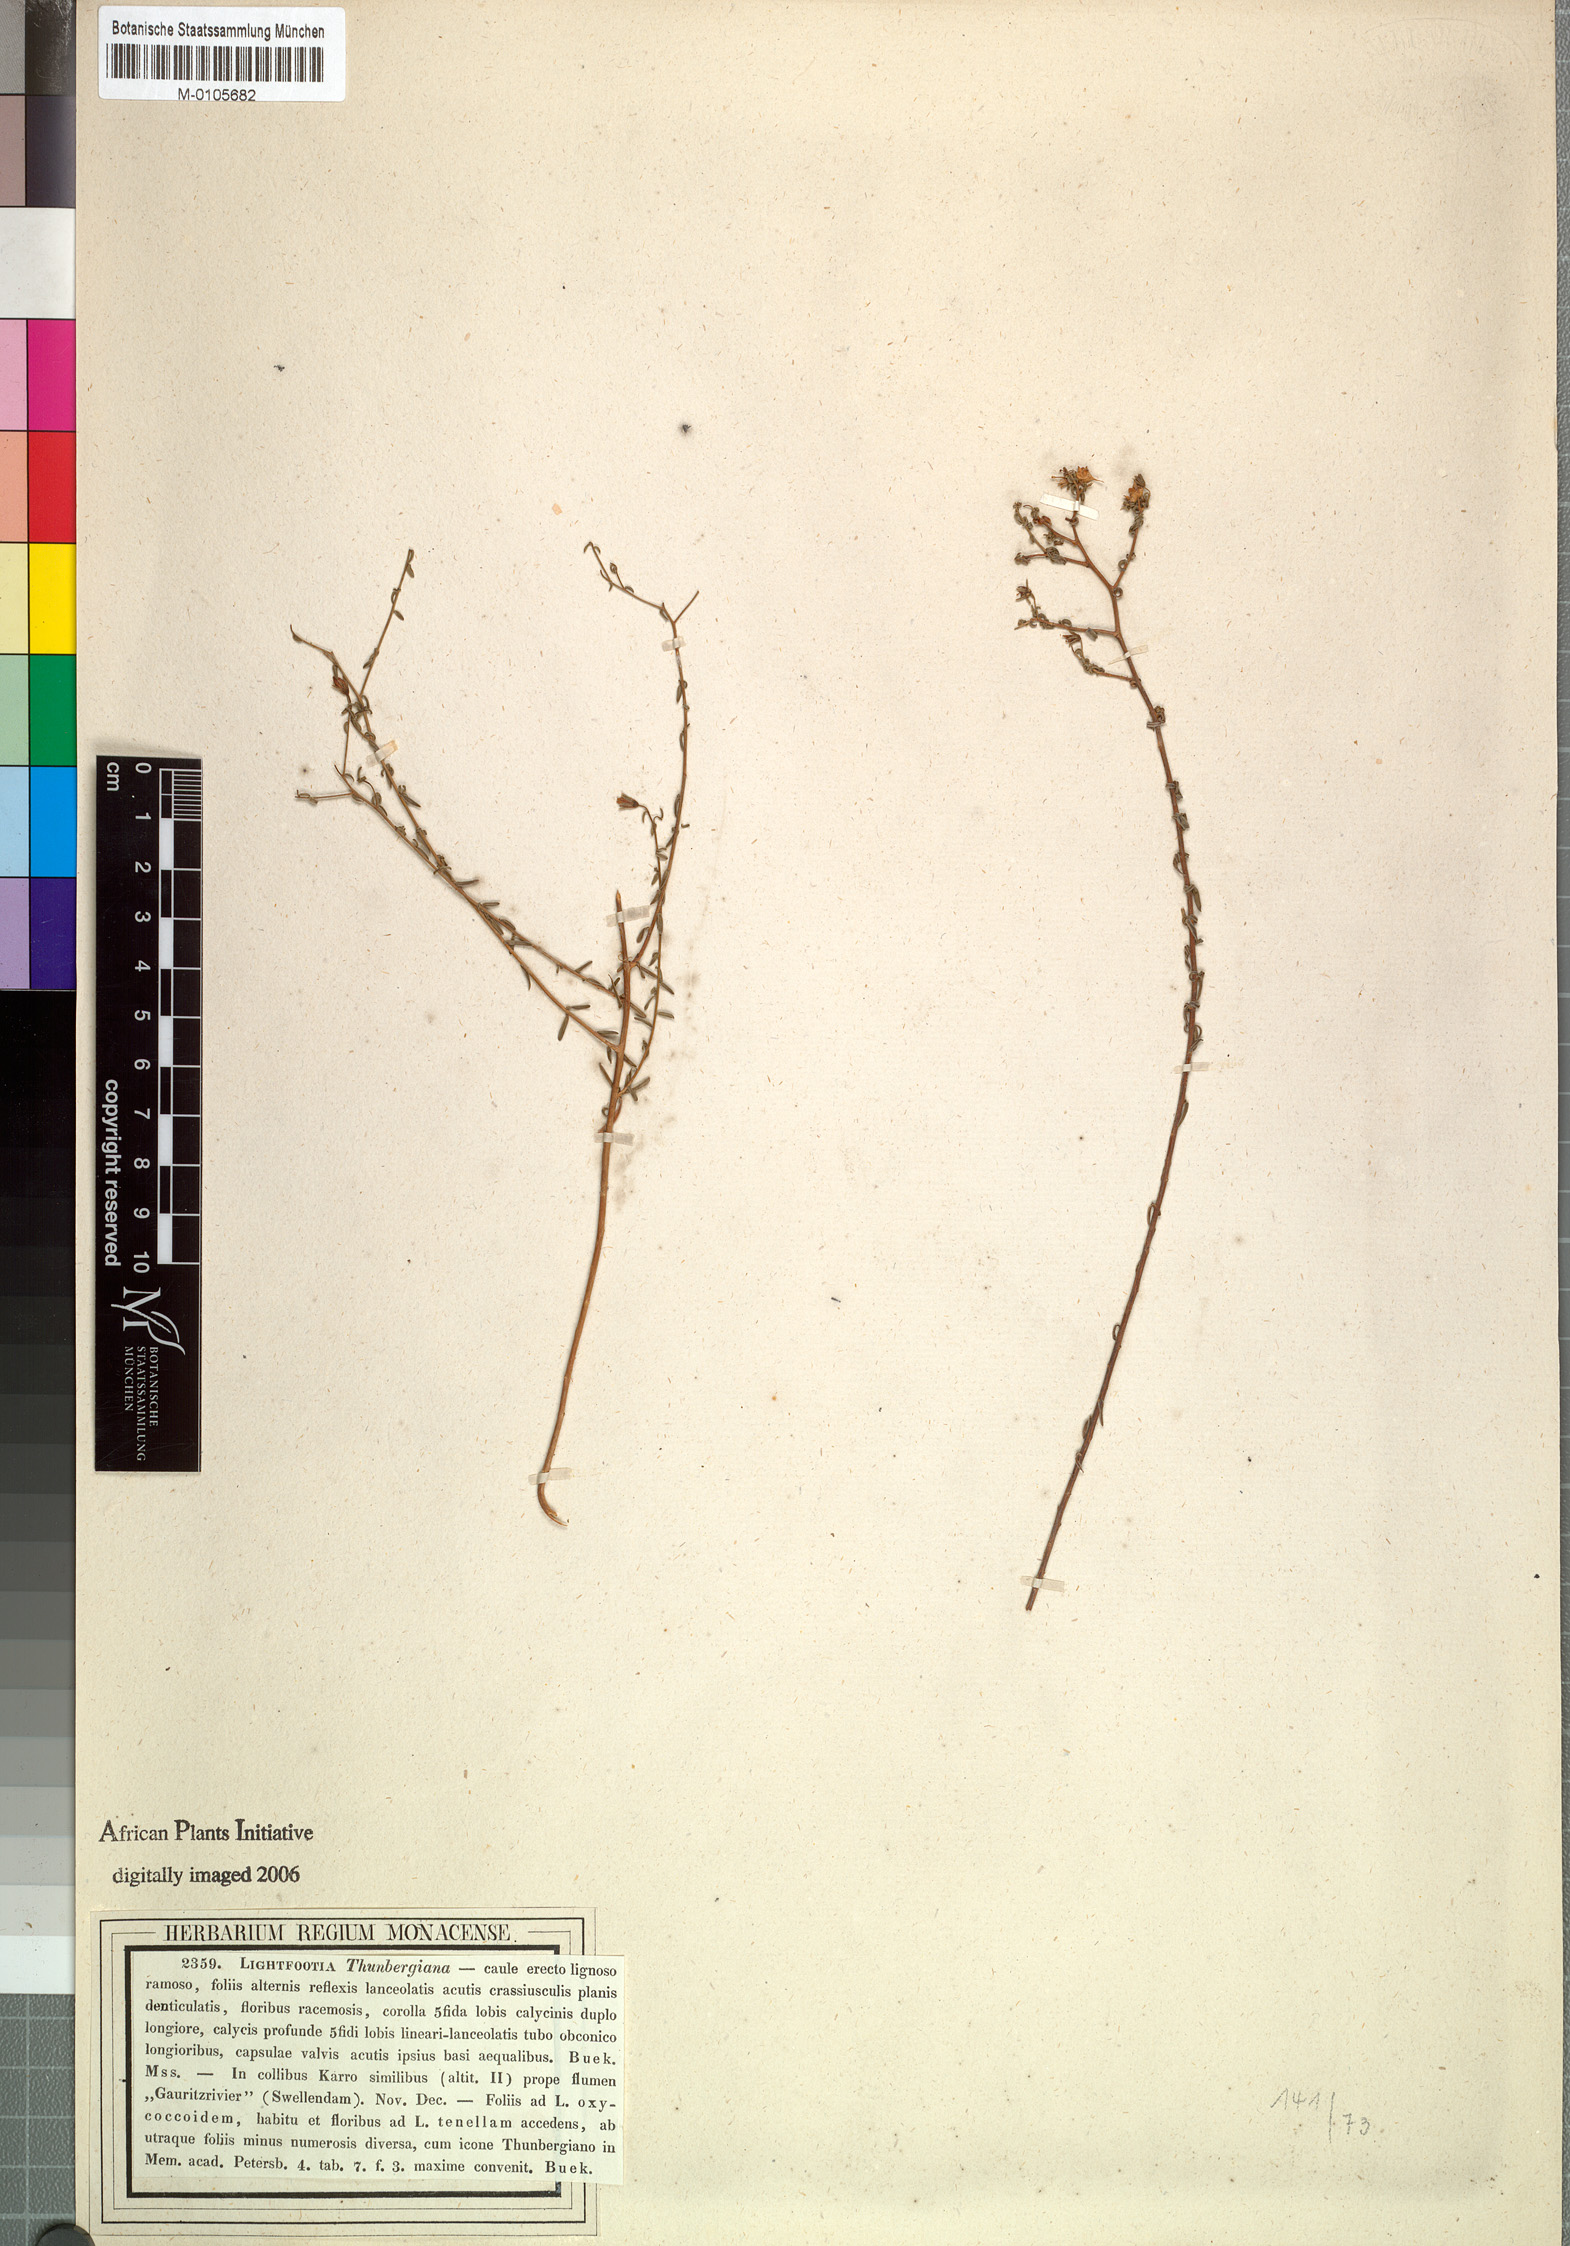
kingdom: Plantae
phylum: Tracheophyta
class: Magnoliopsida
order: Asterales
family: Campanulaceae
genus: Wahlenbergia
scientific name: Wahlenbergia thunbergiana
